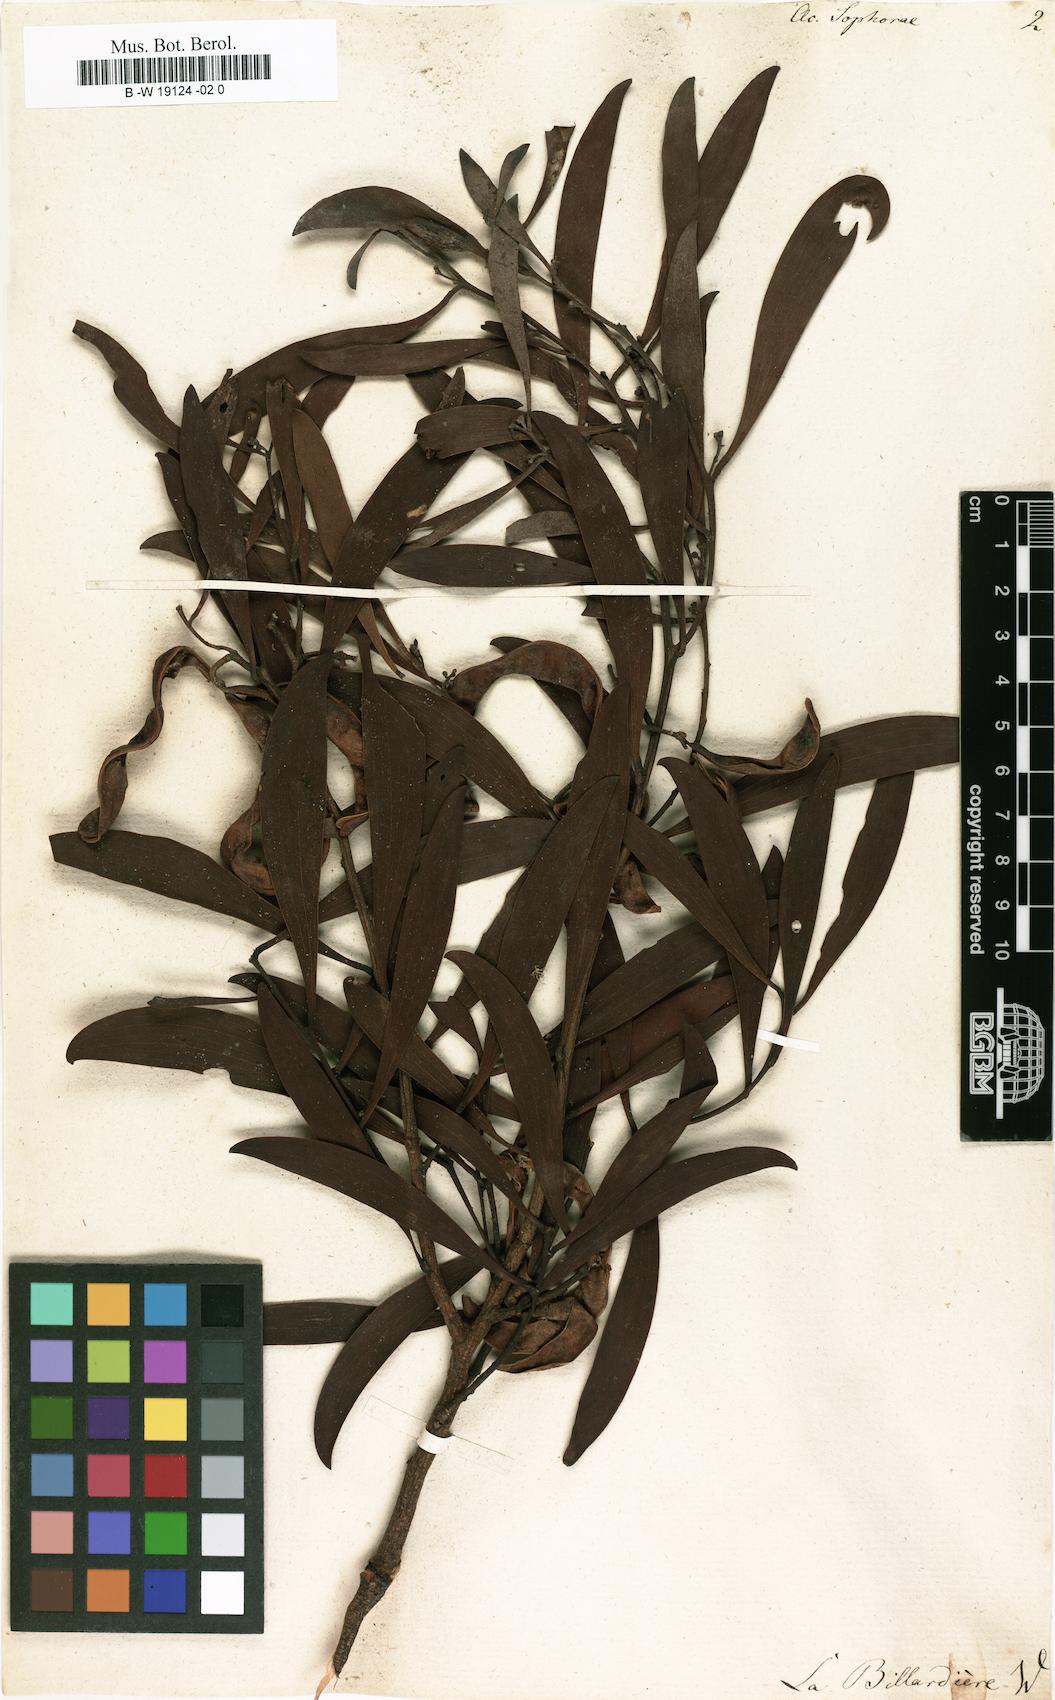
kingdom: Plantae
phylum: Tracheophyta
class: Magnoliopsida
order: Fabales
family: Fabaceae
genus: Acacia
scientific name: Acacia longifolia
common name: Sydney golden wattle
